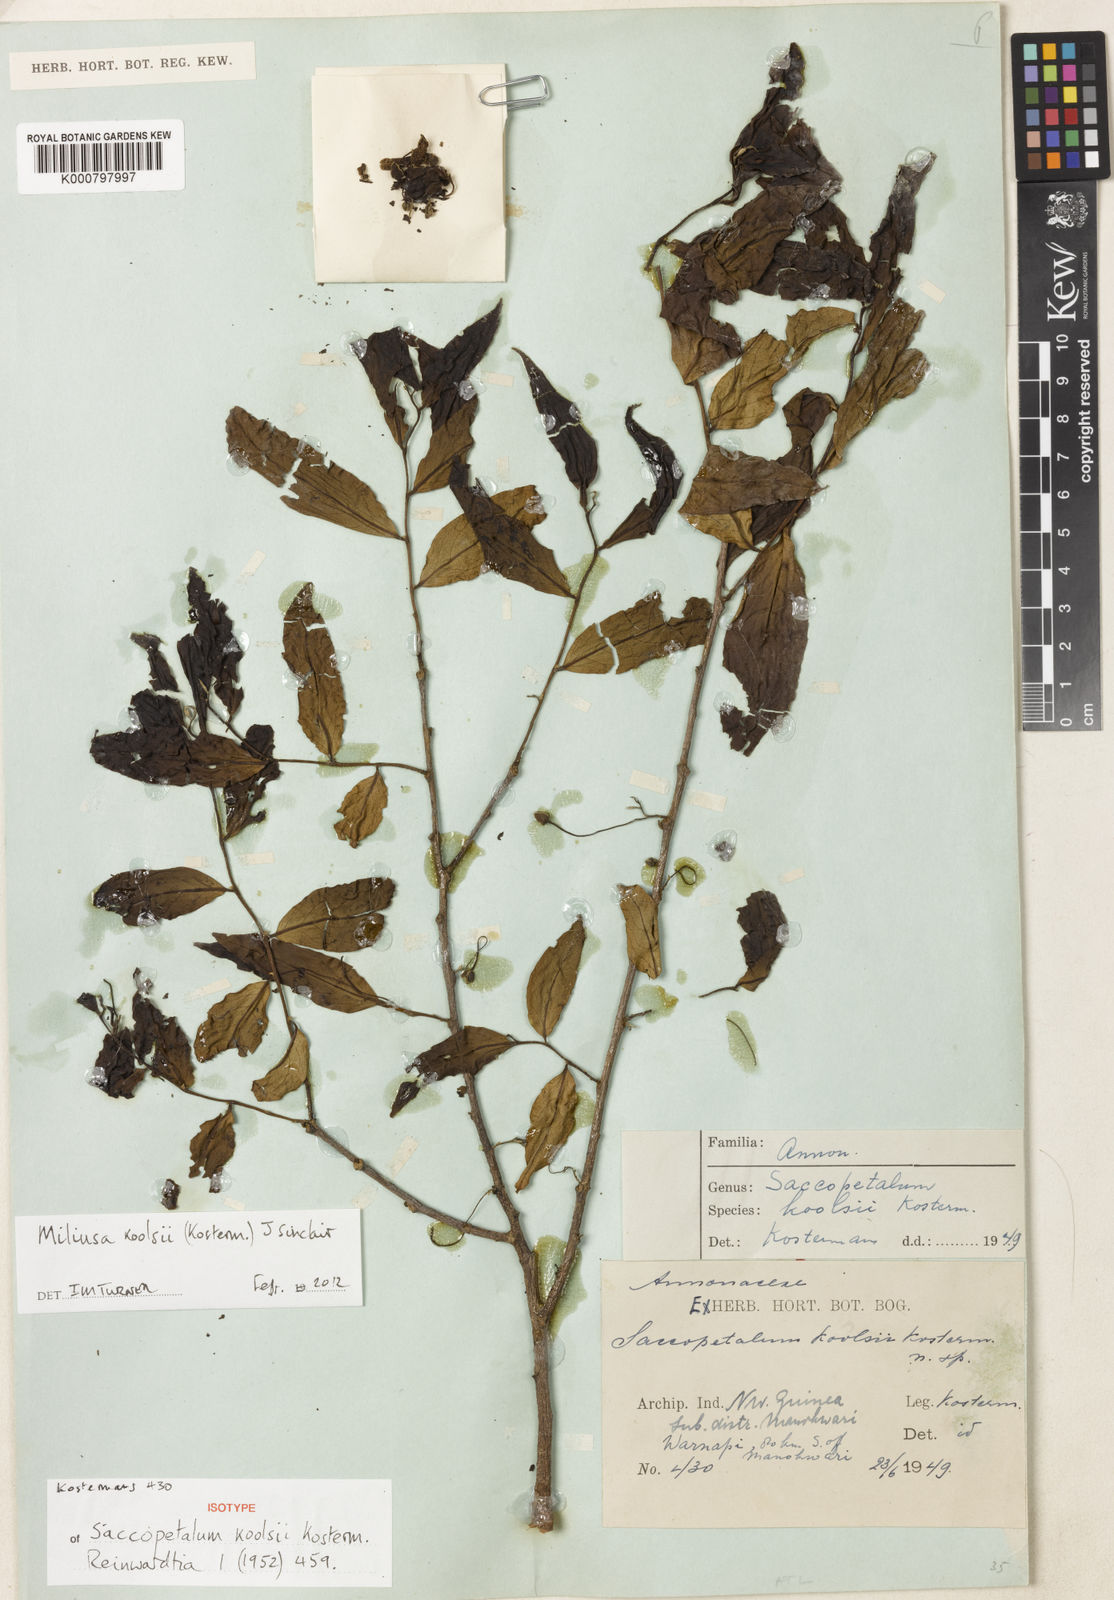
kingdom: Plantae
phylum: Tracheophyta
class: Magnoliopsida
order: Magnoliales
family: Annonaceae
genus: Miliusa
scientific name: Miliusa koolsii
